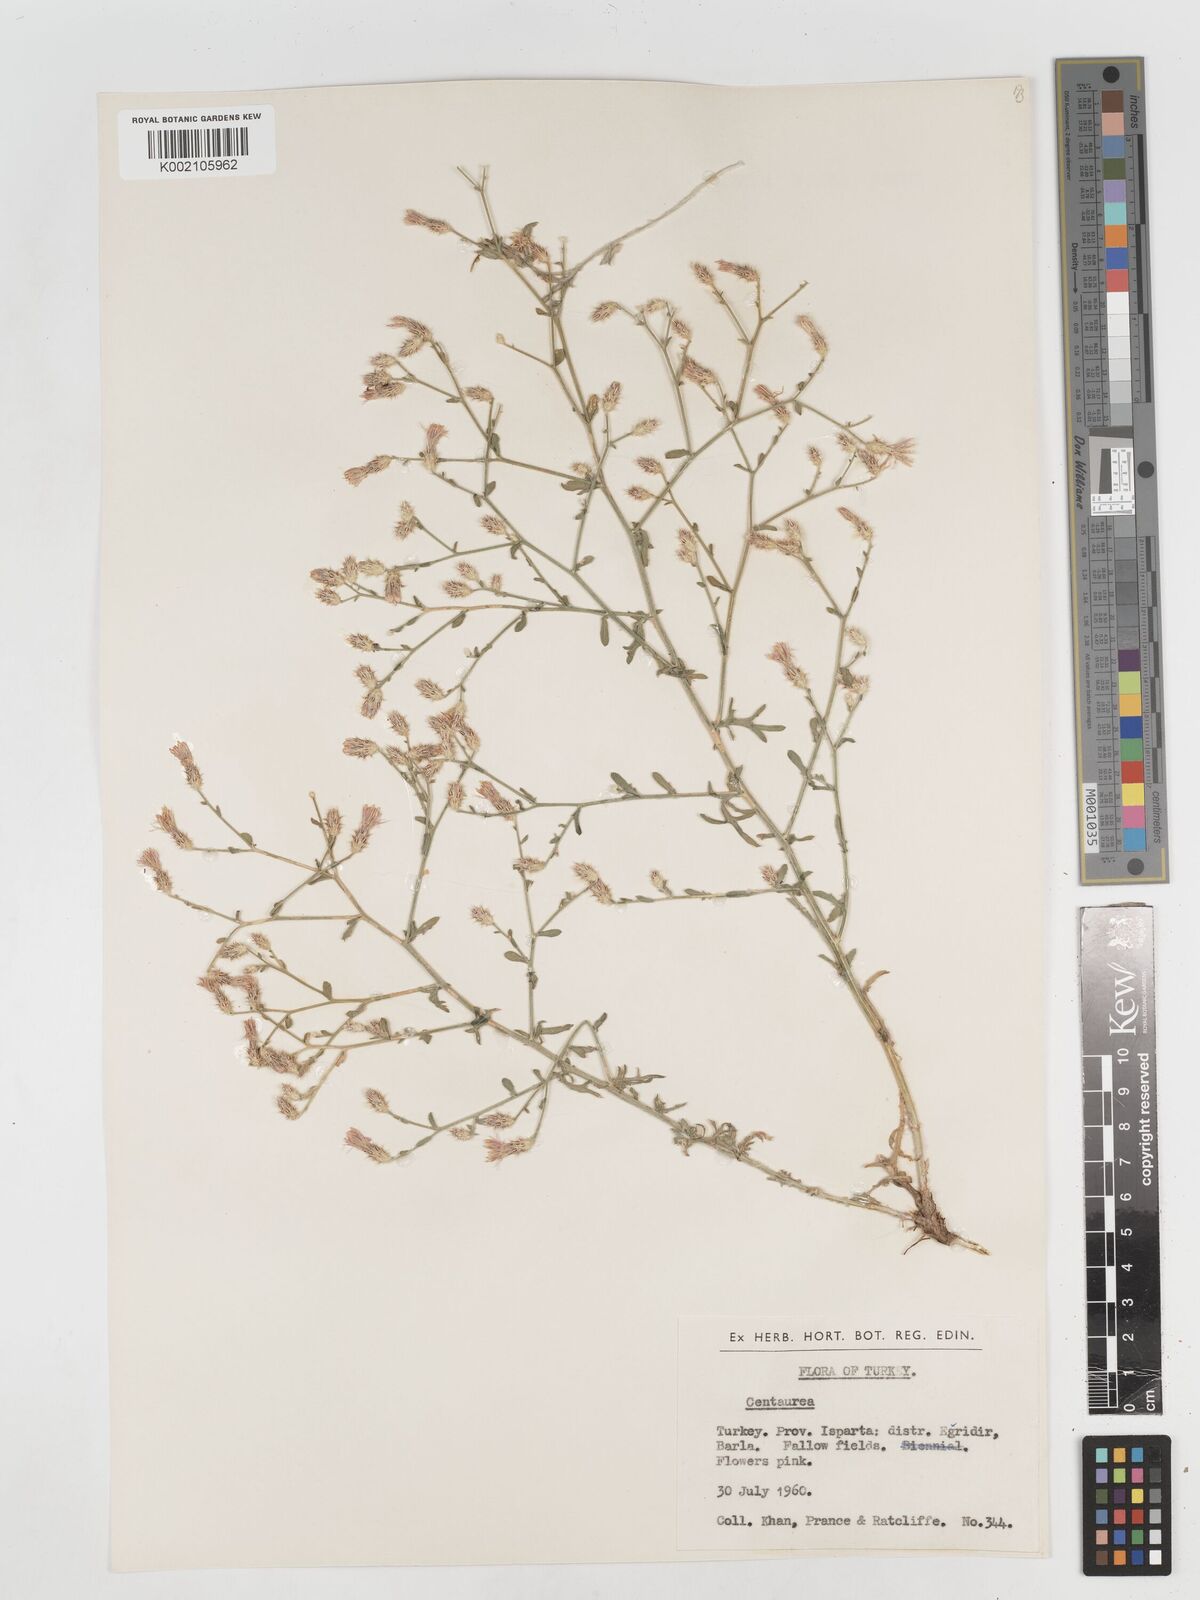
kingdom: Plantae
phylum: Tracheophyta
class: Magnoliopsida
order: Asterales
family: Asteraceae
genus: Centaurea
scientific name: Centaurea
